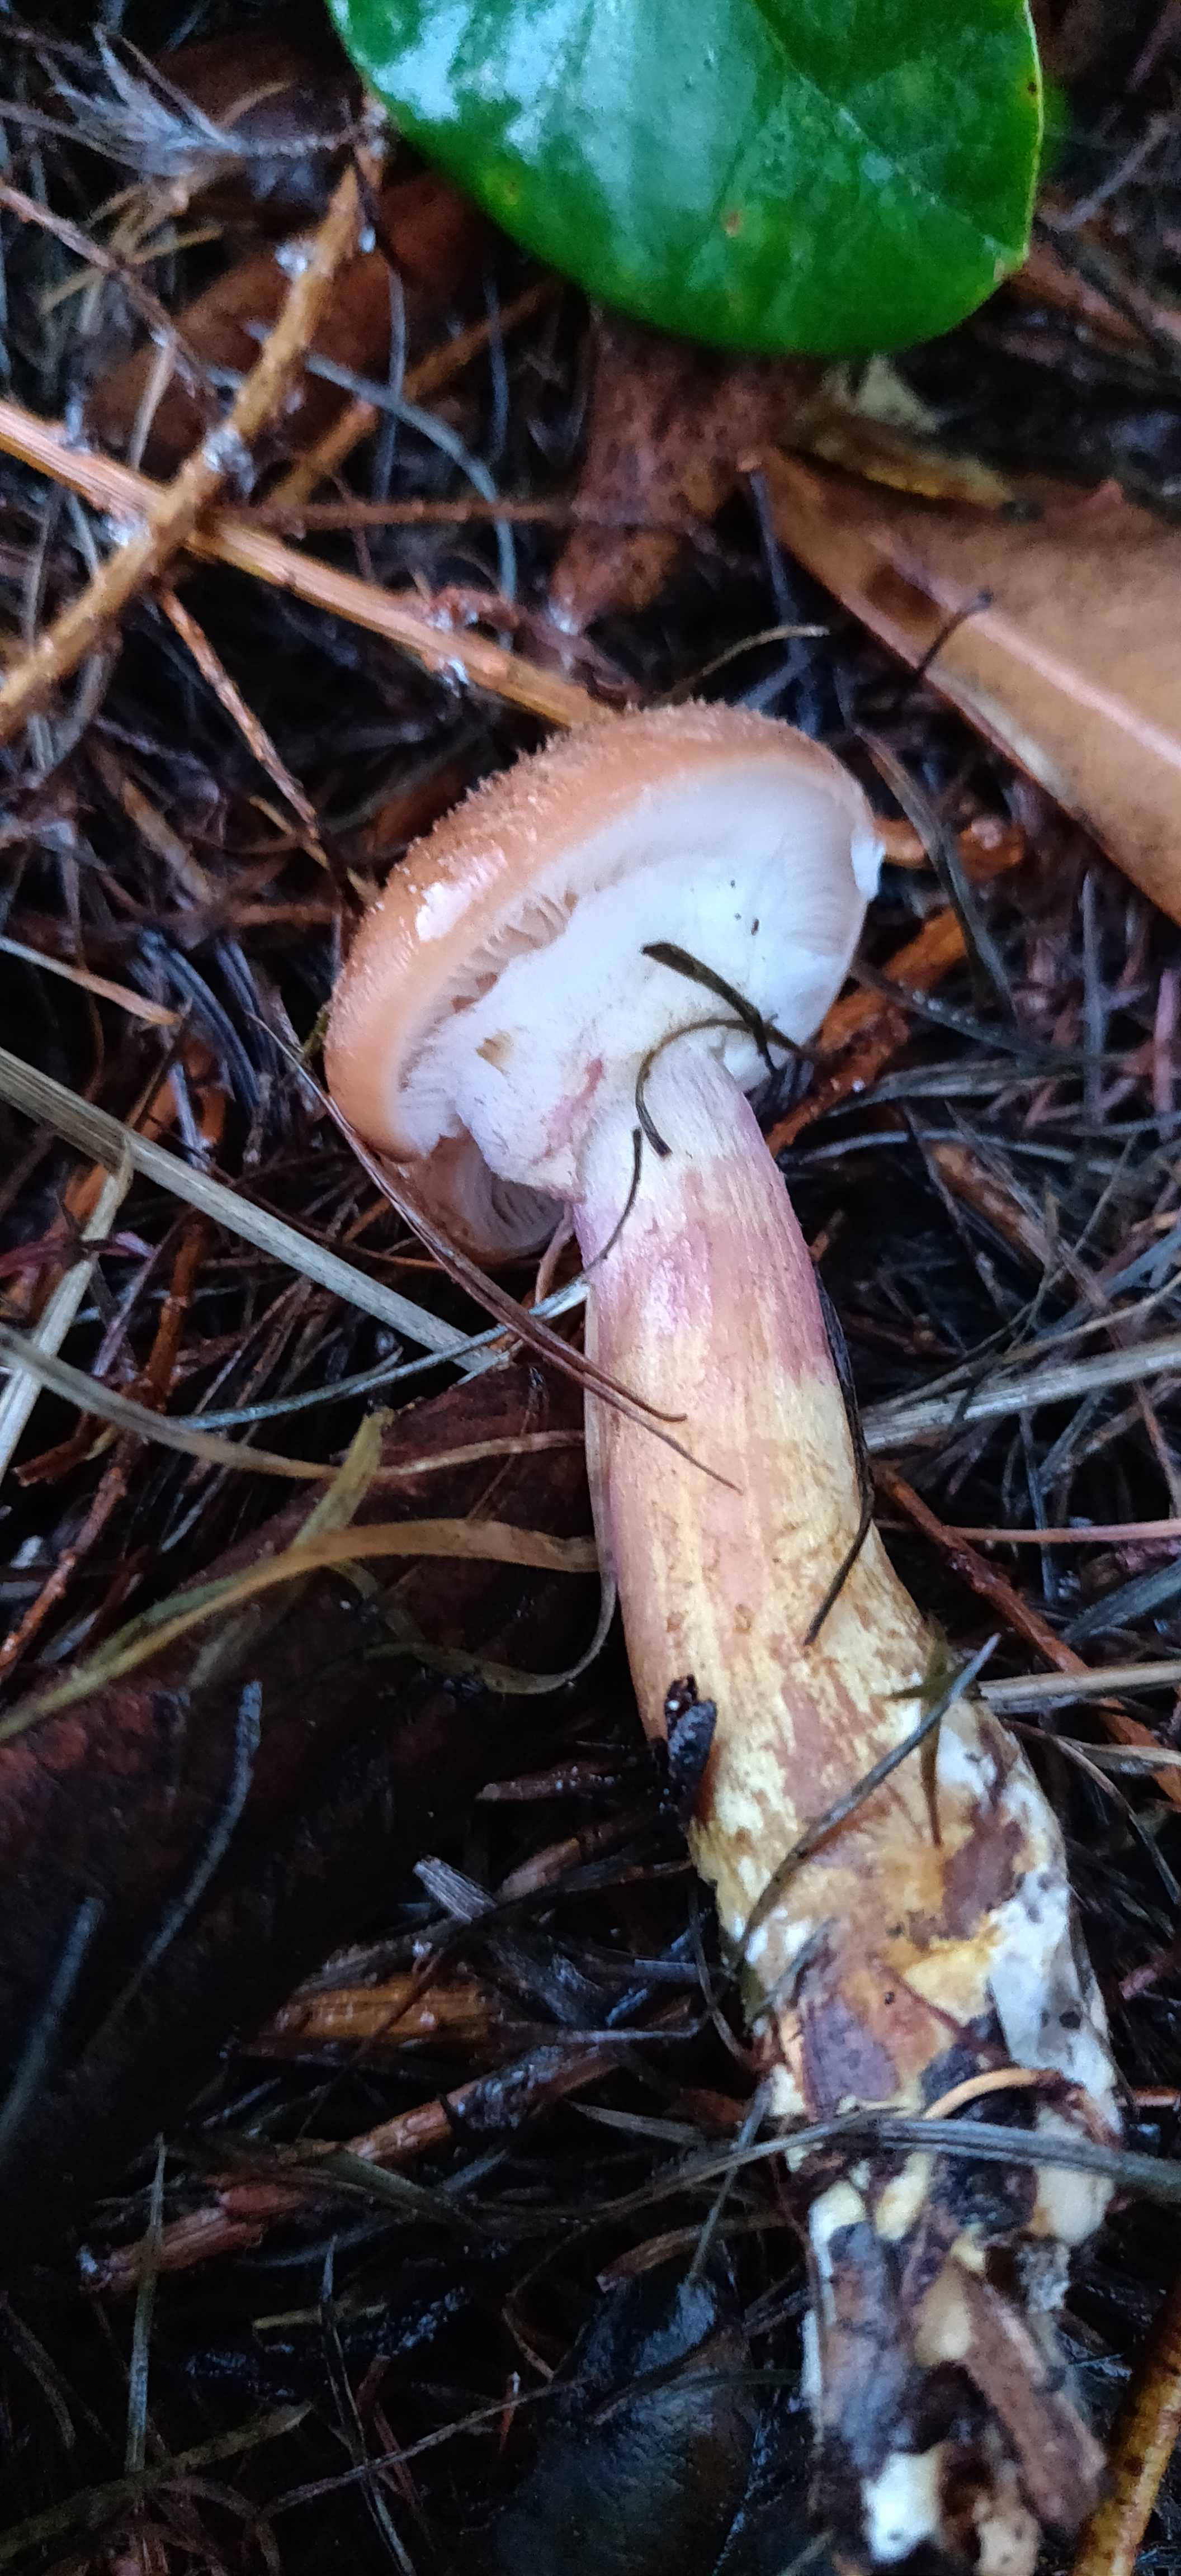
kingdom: Fungi
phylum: Basidiomycota
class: Agaricomycetes
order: Agaricales
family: Physalacriaceae
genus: Armillaria
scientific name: Armillaria lutea
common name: køllestokket honningsvamp
